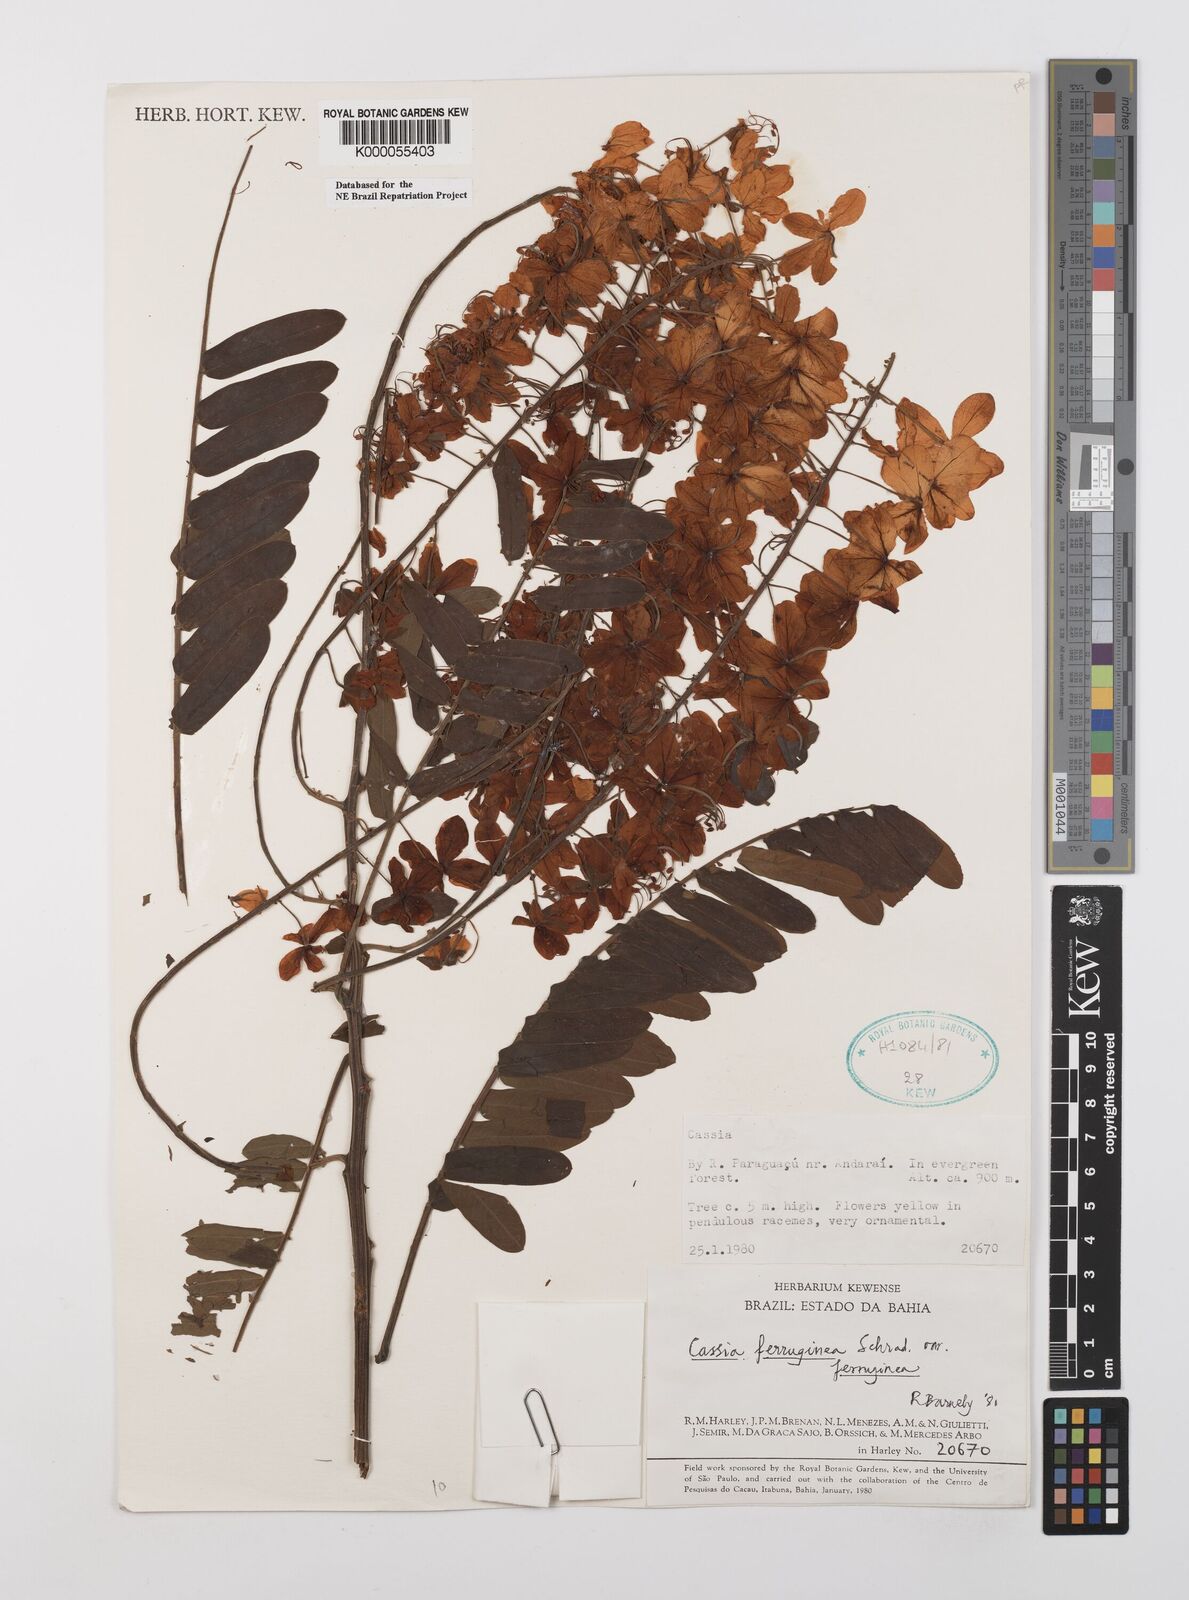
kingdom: Plantae
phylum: Tracheophyta
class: Magnoliopsida
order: Fabales
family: Fabaceae
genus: Cassia
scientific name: Cassia ferruginea
